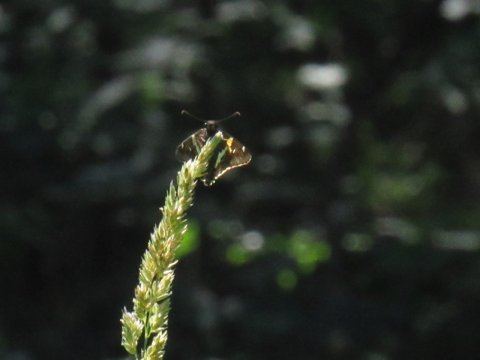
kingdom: Animalia
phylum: Arthropoda
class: Insecta
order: Lepidoptera
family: Hesperiidae
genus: Epargyreus
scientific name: Epargyreus clarus
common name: Silver-spotted Skipper
